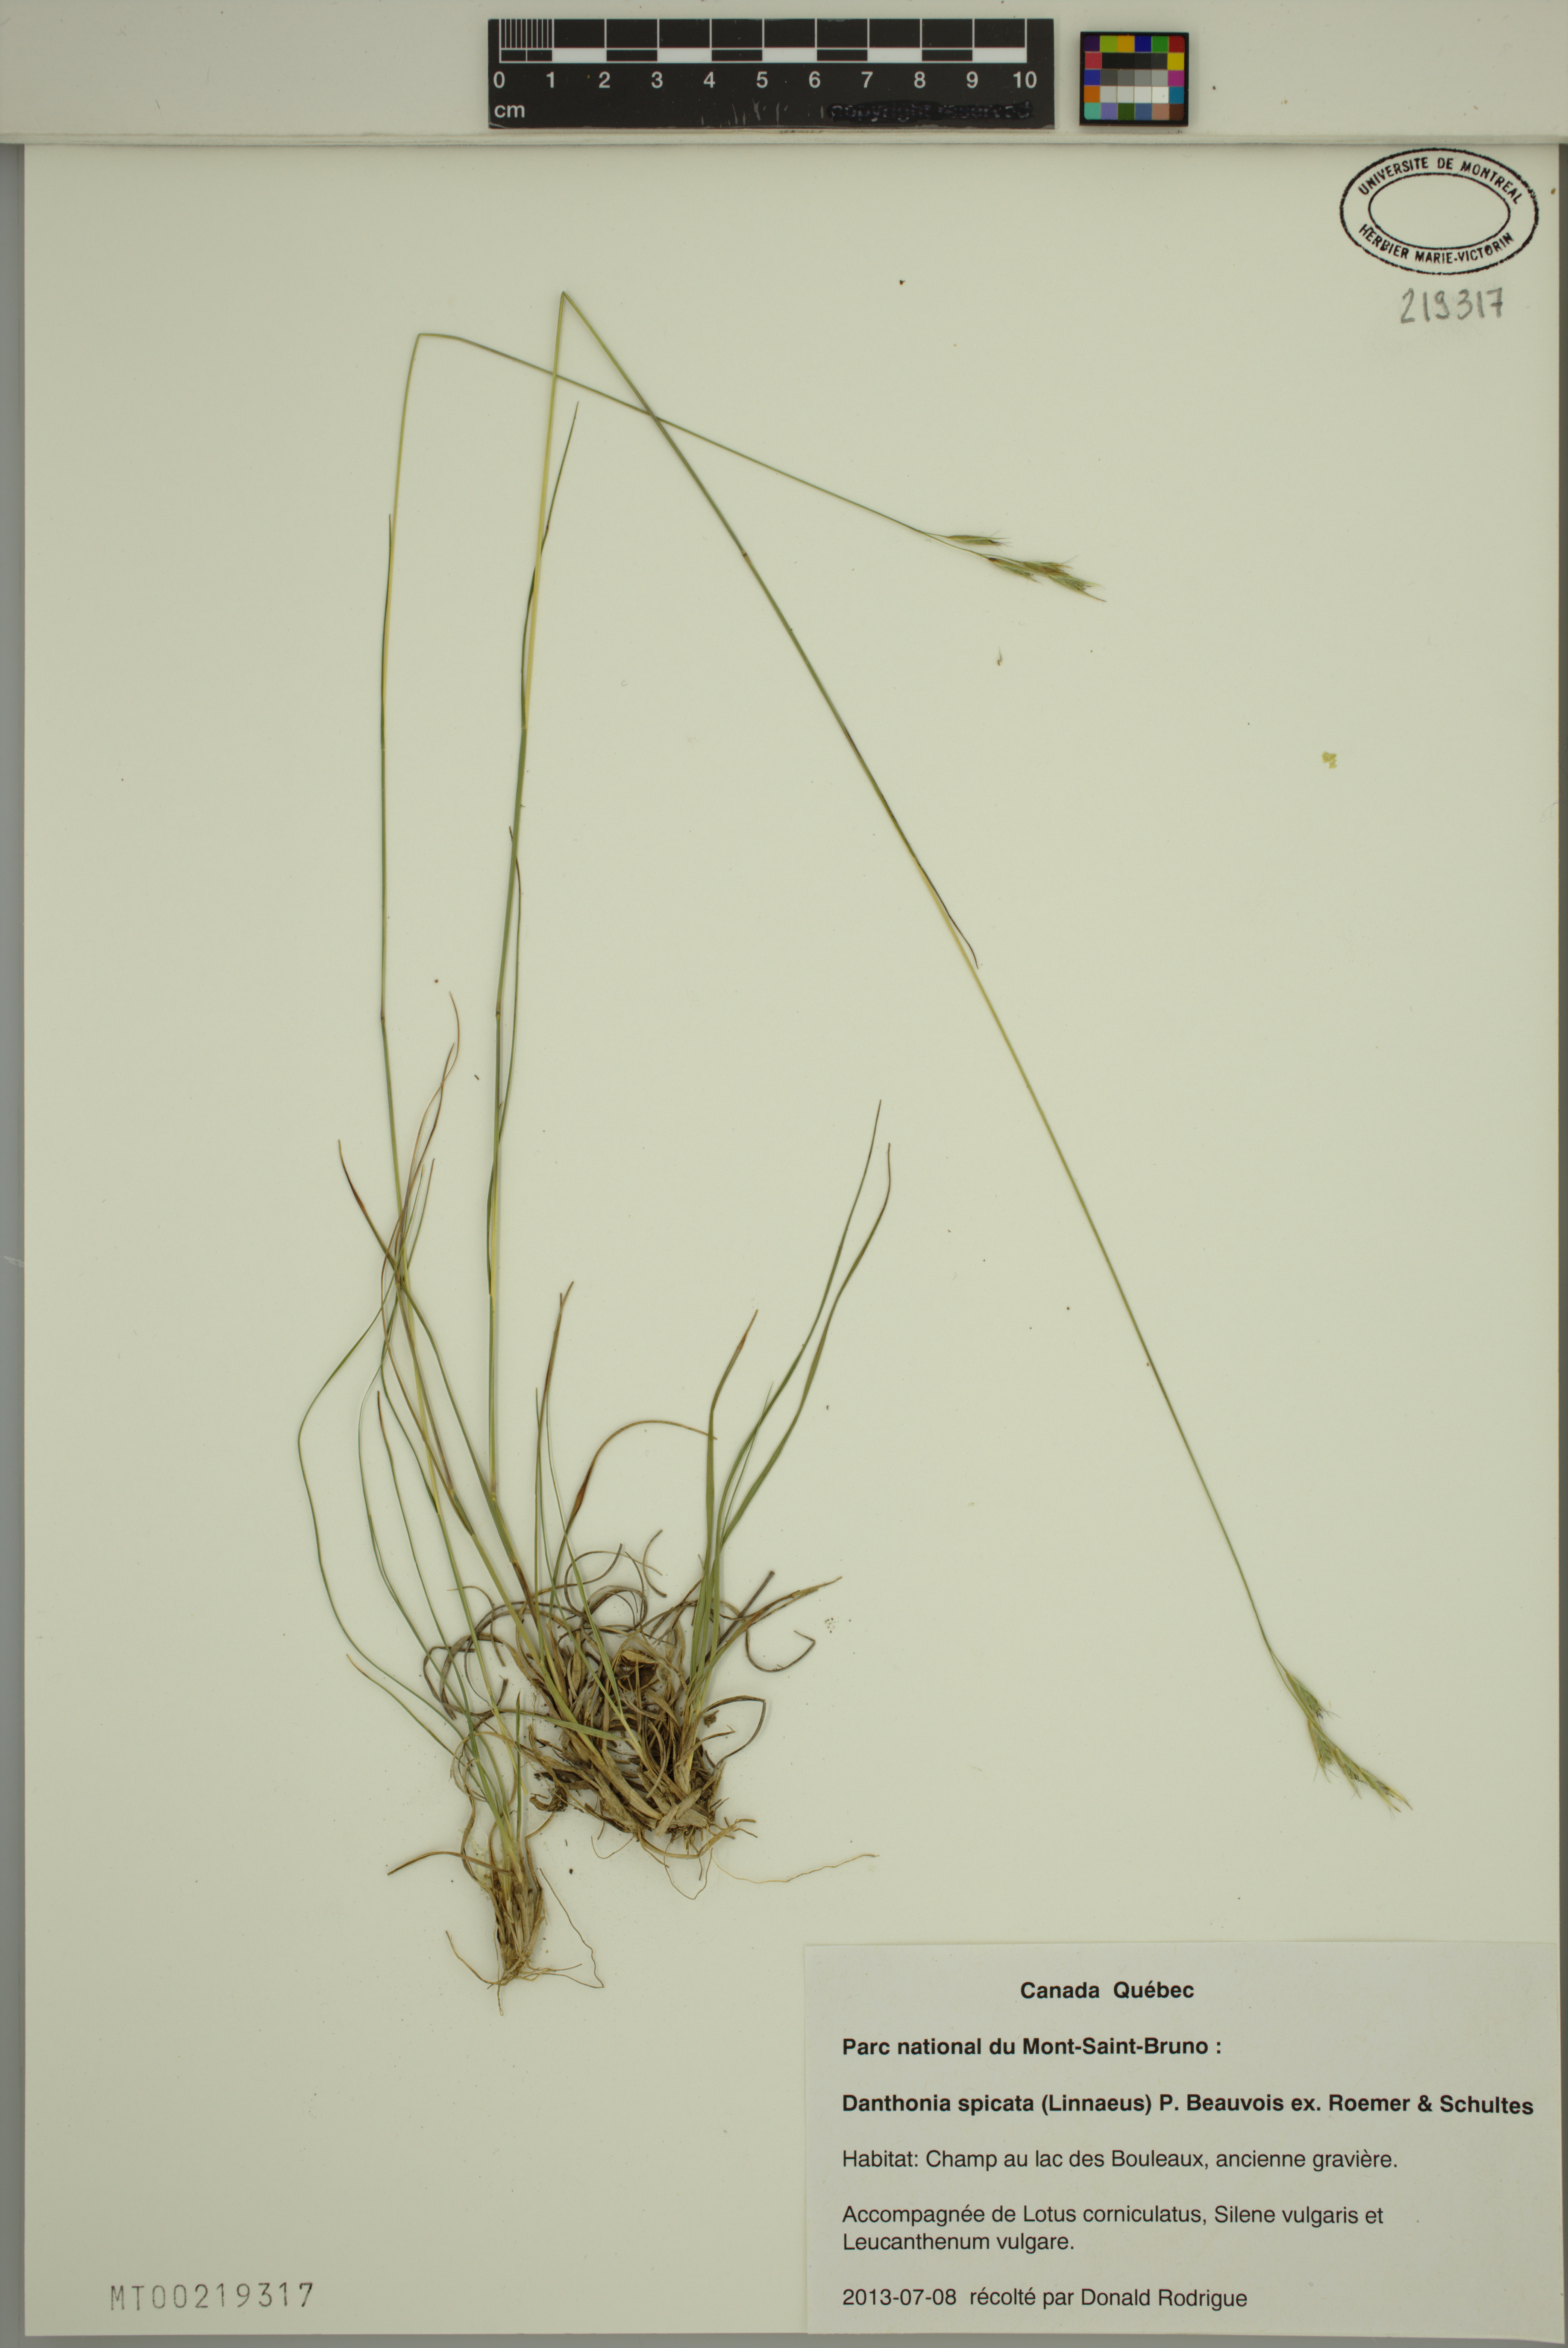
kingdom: Plantae
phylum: Tracheophyta
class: Liliopsida
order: Poales
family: Poaceae
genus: Danthonia
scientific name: Danthonia spicata
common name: Common wild oatgrass
